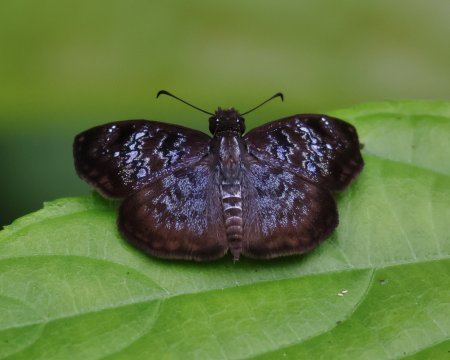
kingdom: Animalia
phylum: Arthropoda
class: Insecta
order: Lepidoptera
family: Hesperiidae
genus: Sophista
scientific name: Sophista bifasciata
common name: Blue-studded Skipper
